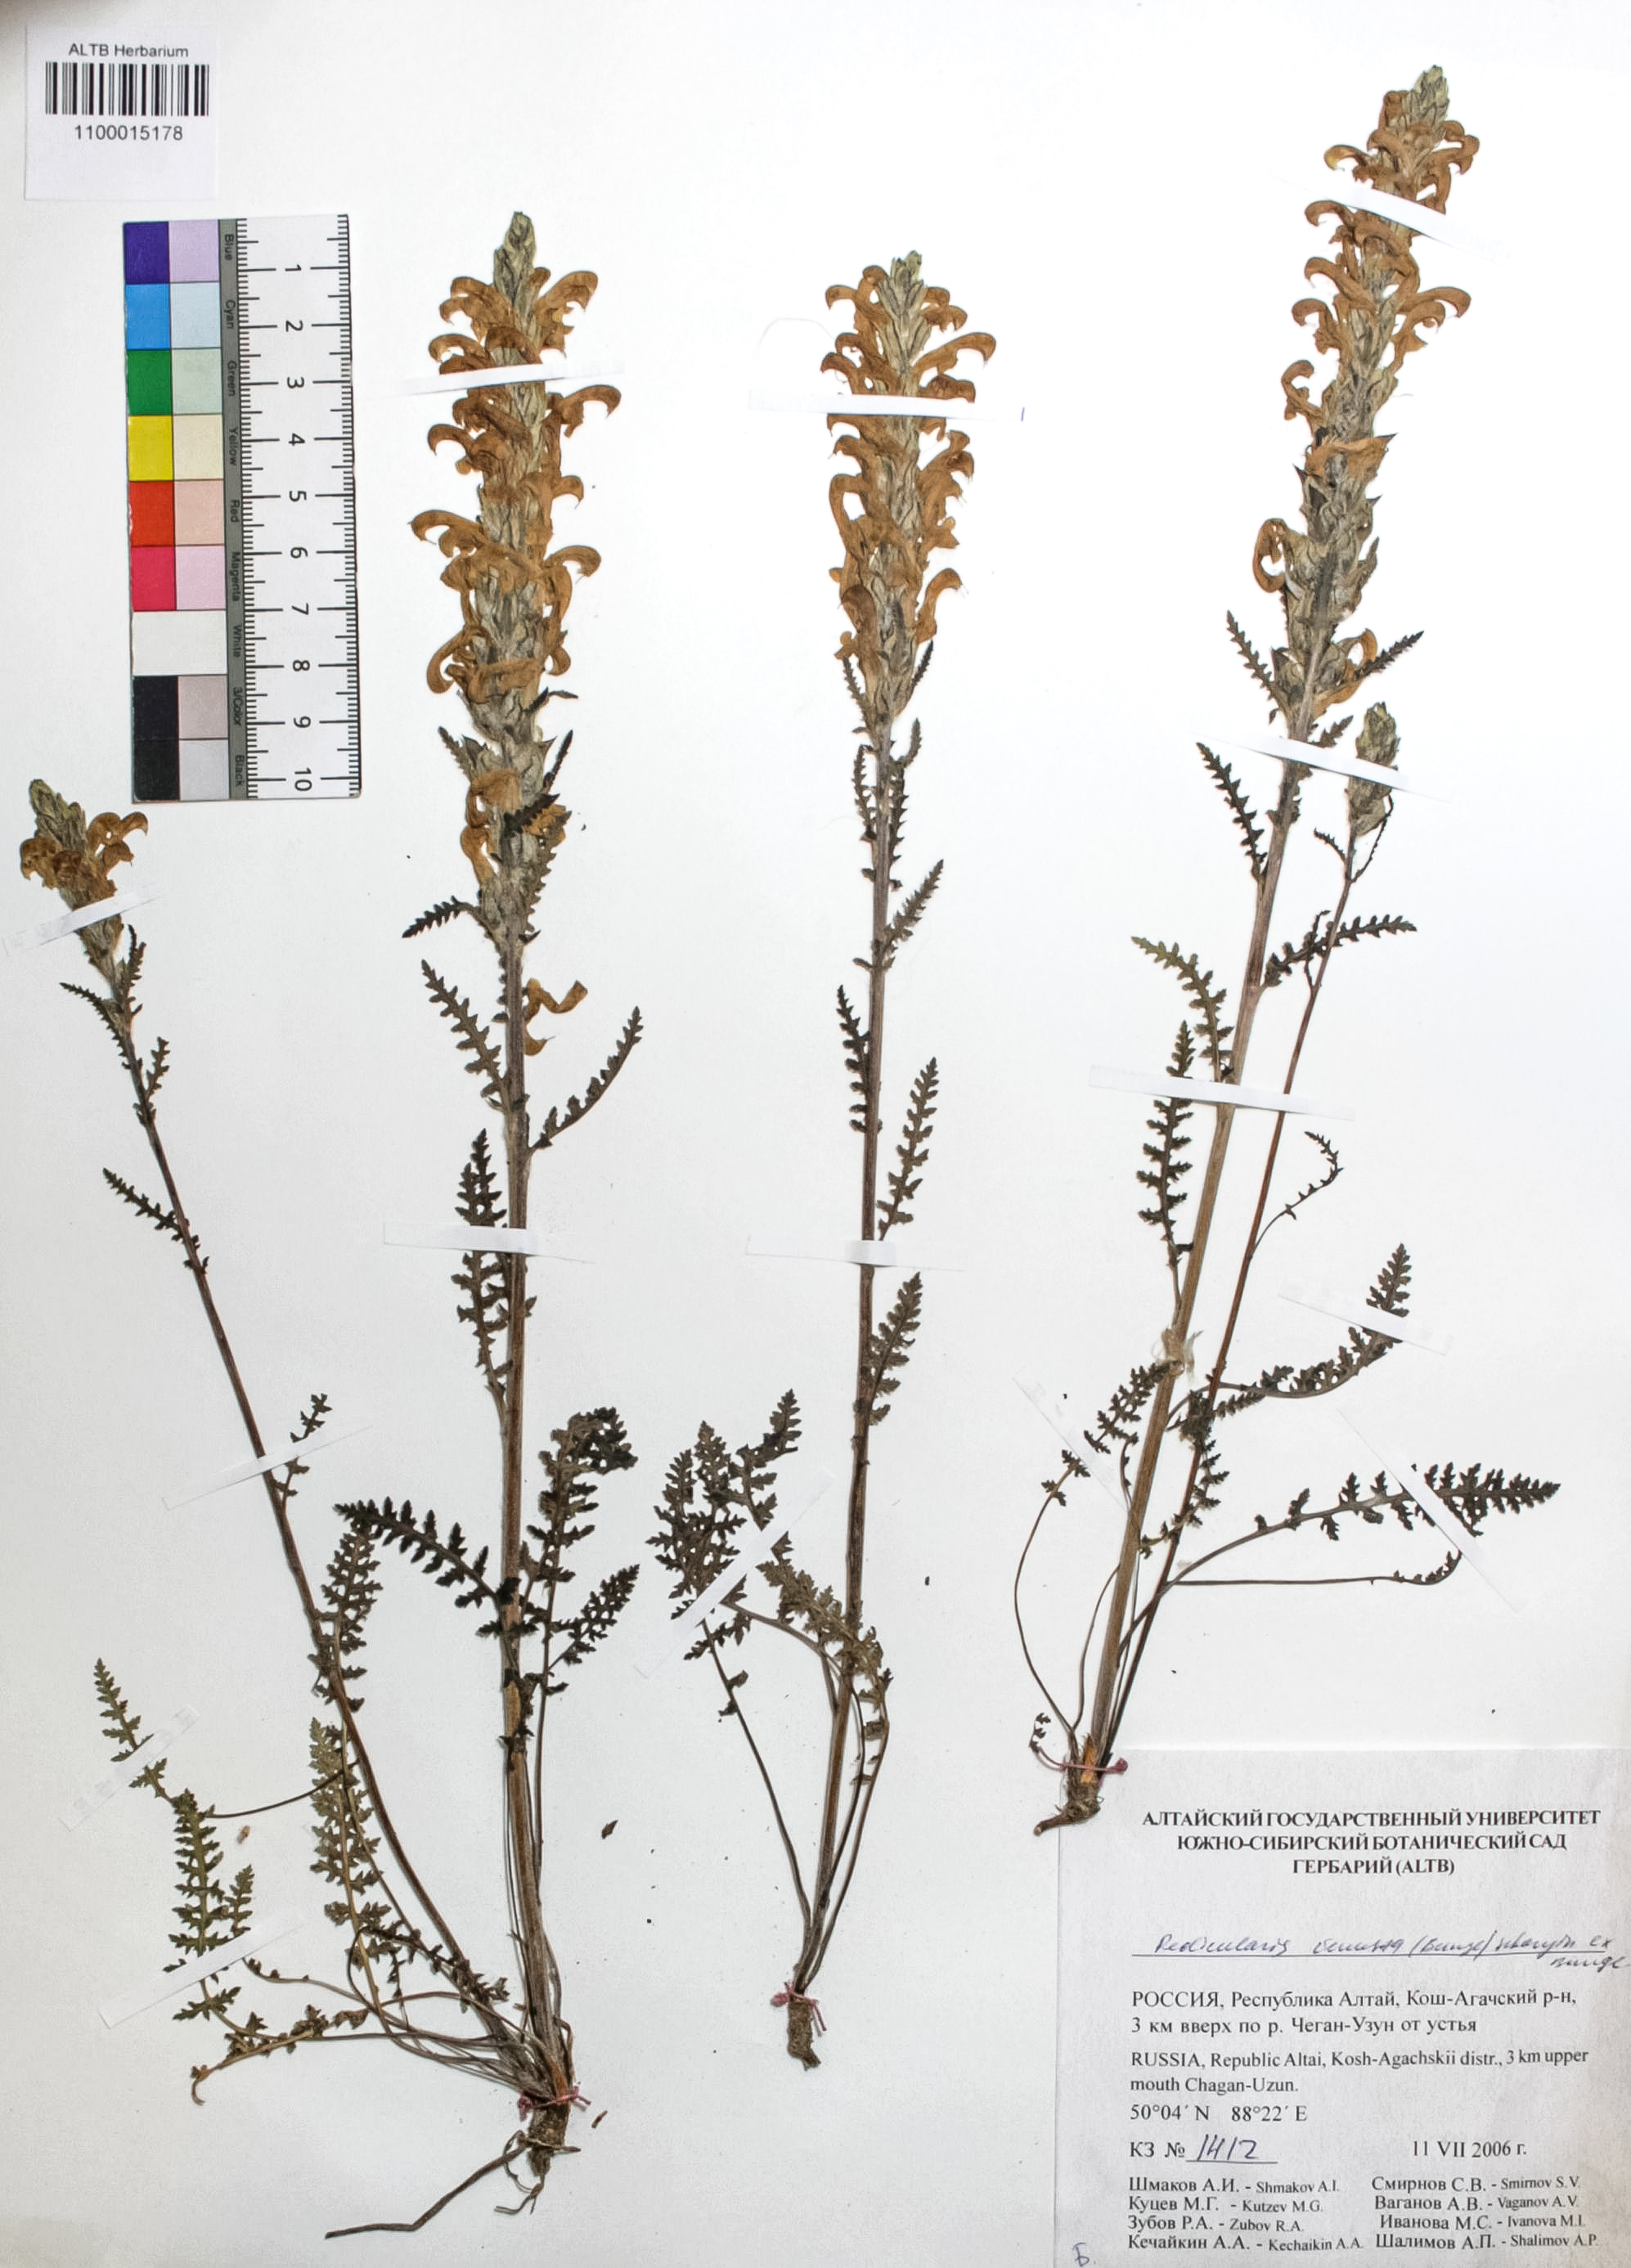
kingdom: Plantae
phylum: Tracheophyta
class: Magnoliopsida
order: Lamiales
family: Orobanchaceae
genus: Pedicularis
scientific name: Pedicularis venusta
